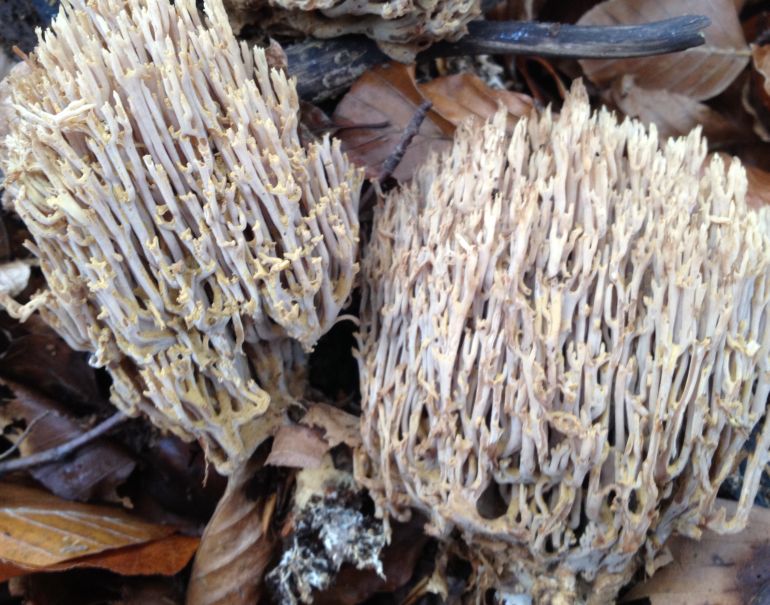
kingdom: Fungi
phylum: Basidiomycota
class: Agaricomycetes
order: Gomphales
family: Gomphaceae
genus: Ramaria
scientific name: Ramaria stricta
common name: rank koralsvamp
